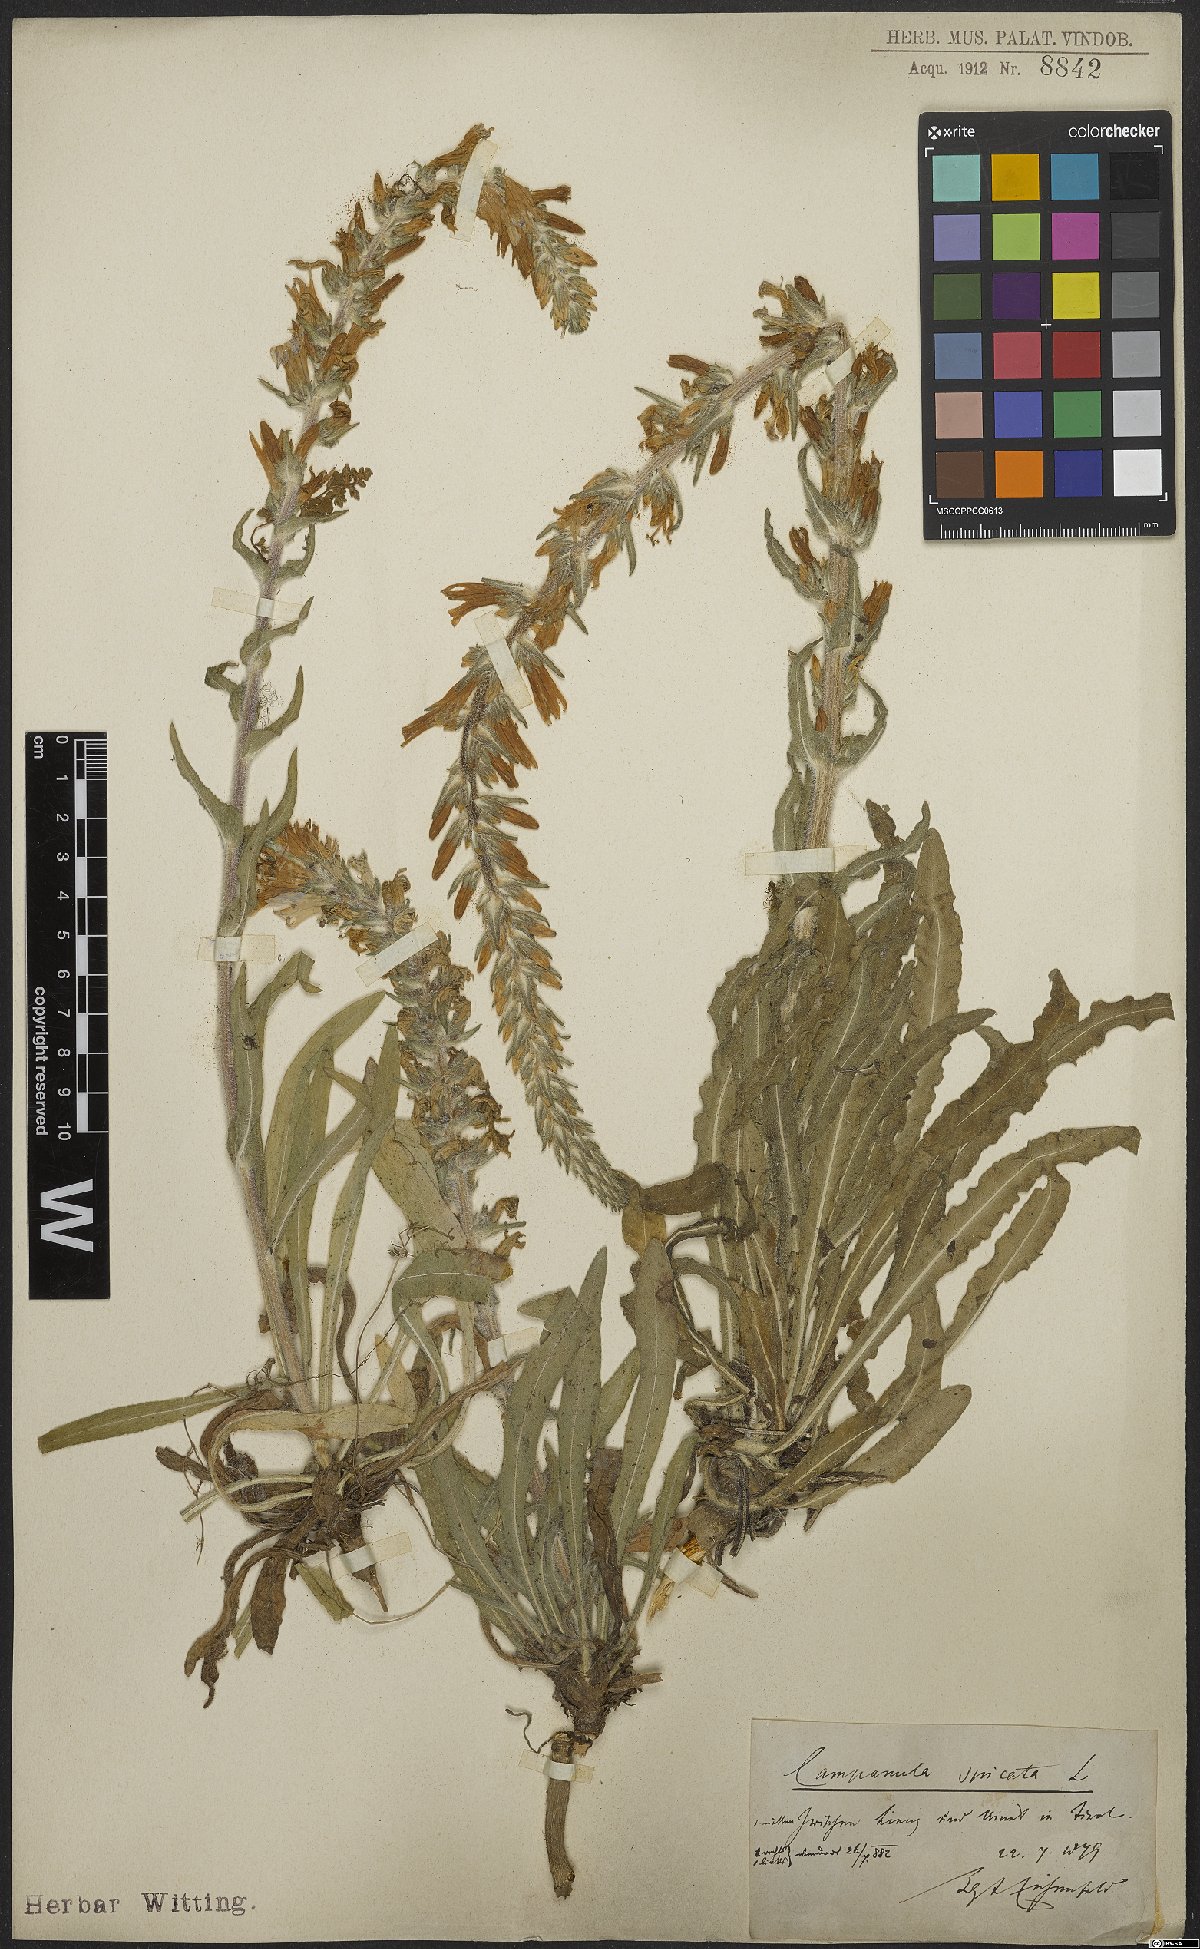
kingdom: Plantae
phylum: Tracheophyta
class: Magnoliopsida
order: Asterales
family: Campanulaceae
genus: Campanula
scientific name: Campanula spicata
